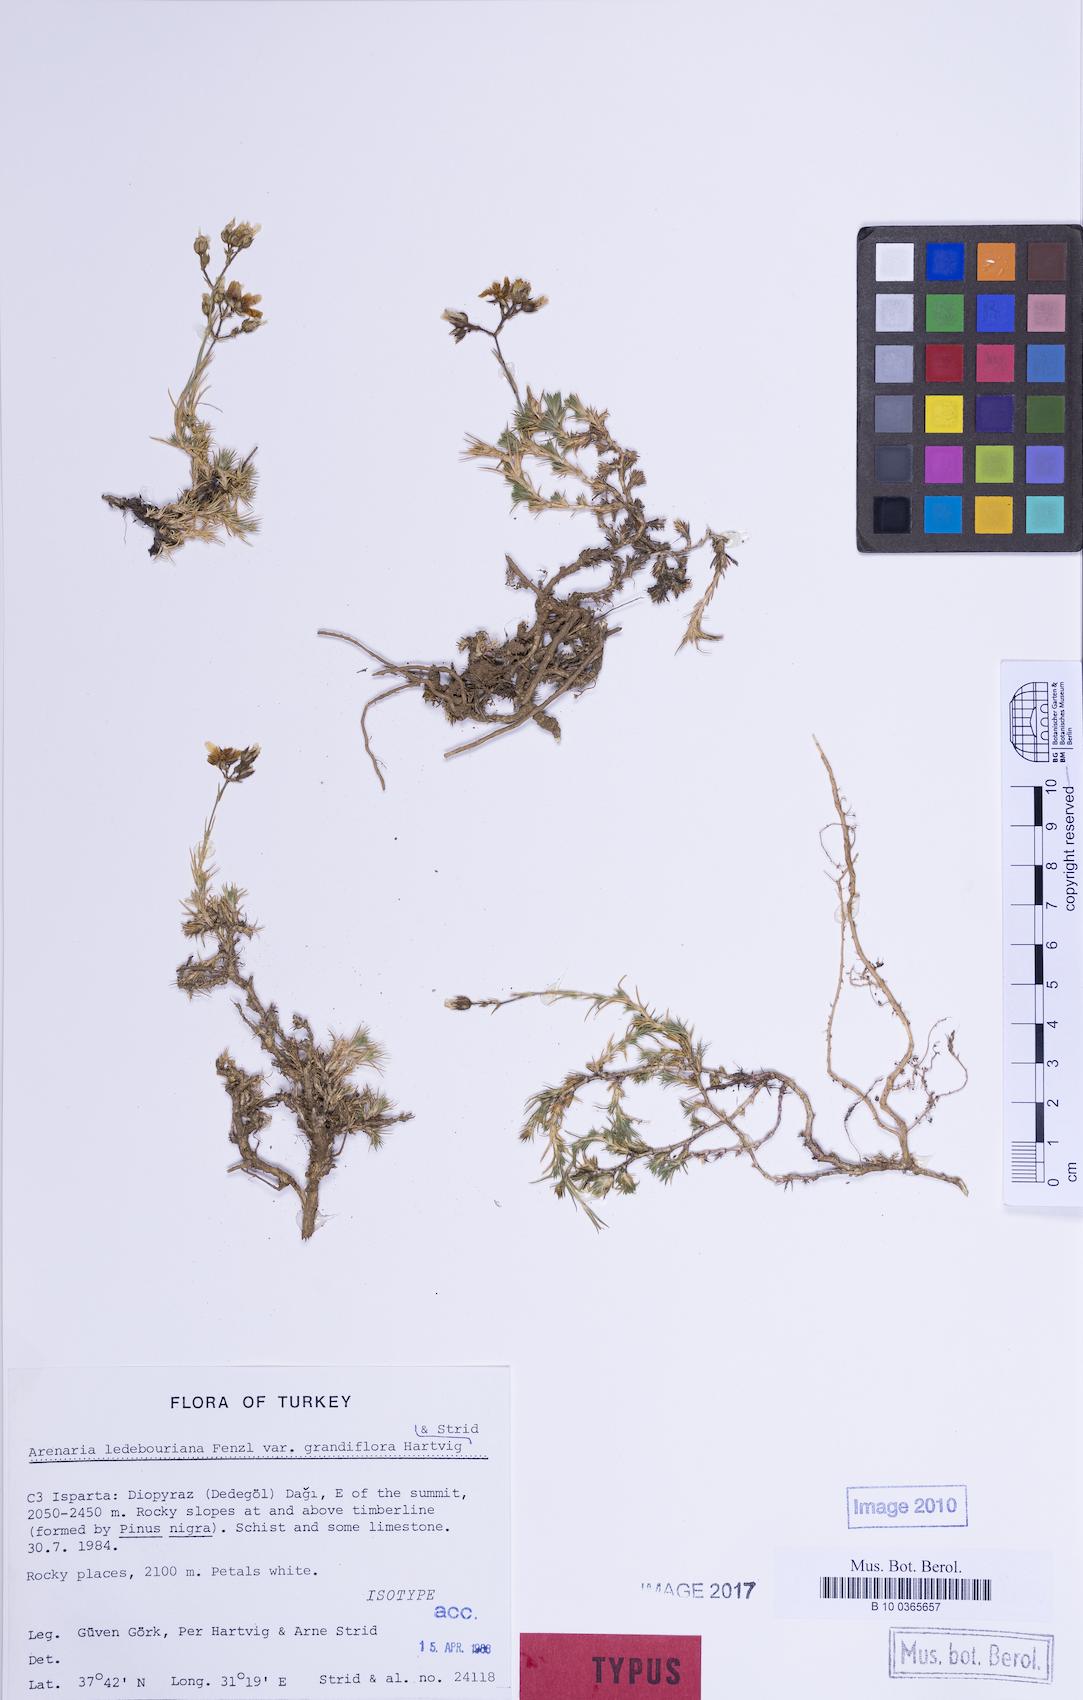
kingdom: Plantae
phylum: Tracheophyta
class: Magnoliopsida
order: Caryophyllales
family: Caryophyllaceae
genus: Eremogone
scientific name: Eremogone ledebouriana
